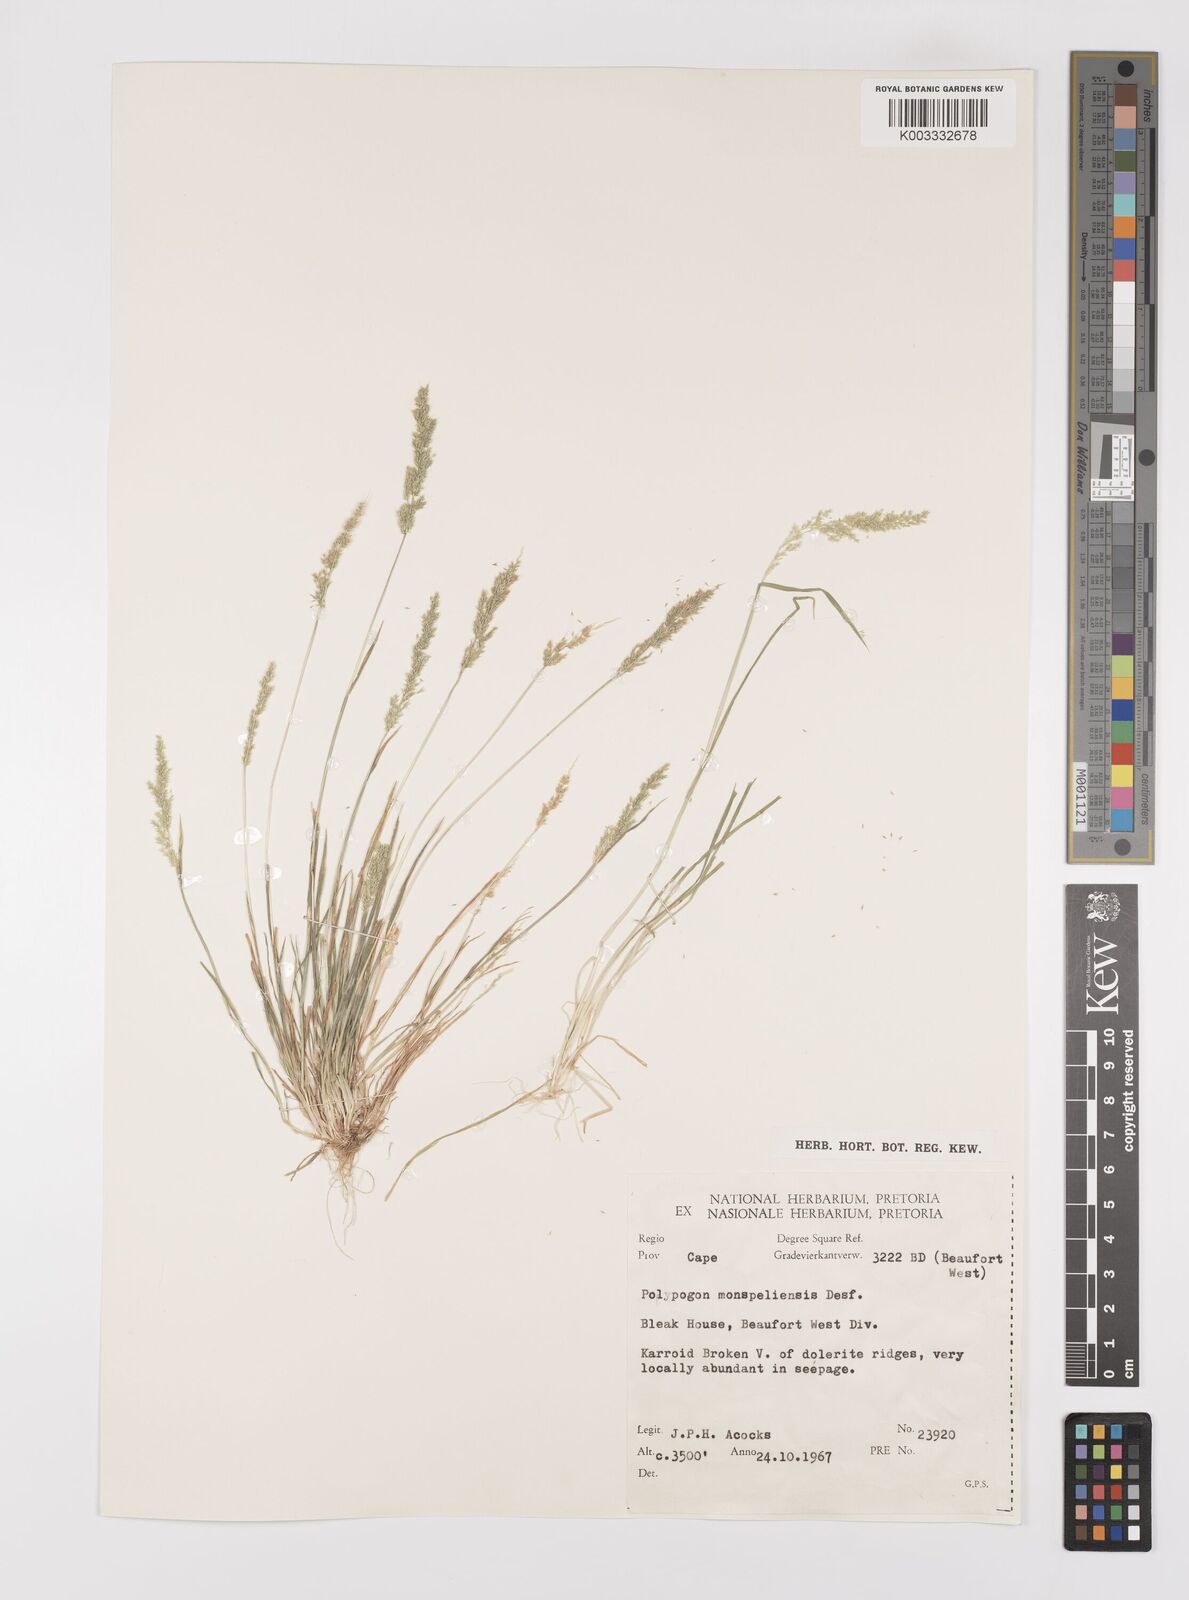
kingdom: Plantae
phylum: Tracheophyta
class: Liliopsida
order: Poales
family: Poaceae
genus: Polypogon
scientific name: Polypogon monspeliensis
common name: Annual rabbitsfoot grass
